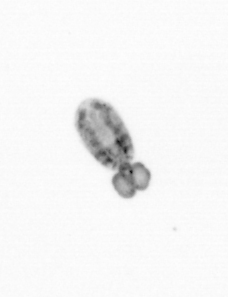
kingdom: Animalia
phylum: Arthropoda
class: Copepoda
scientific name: Copepoda
